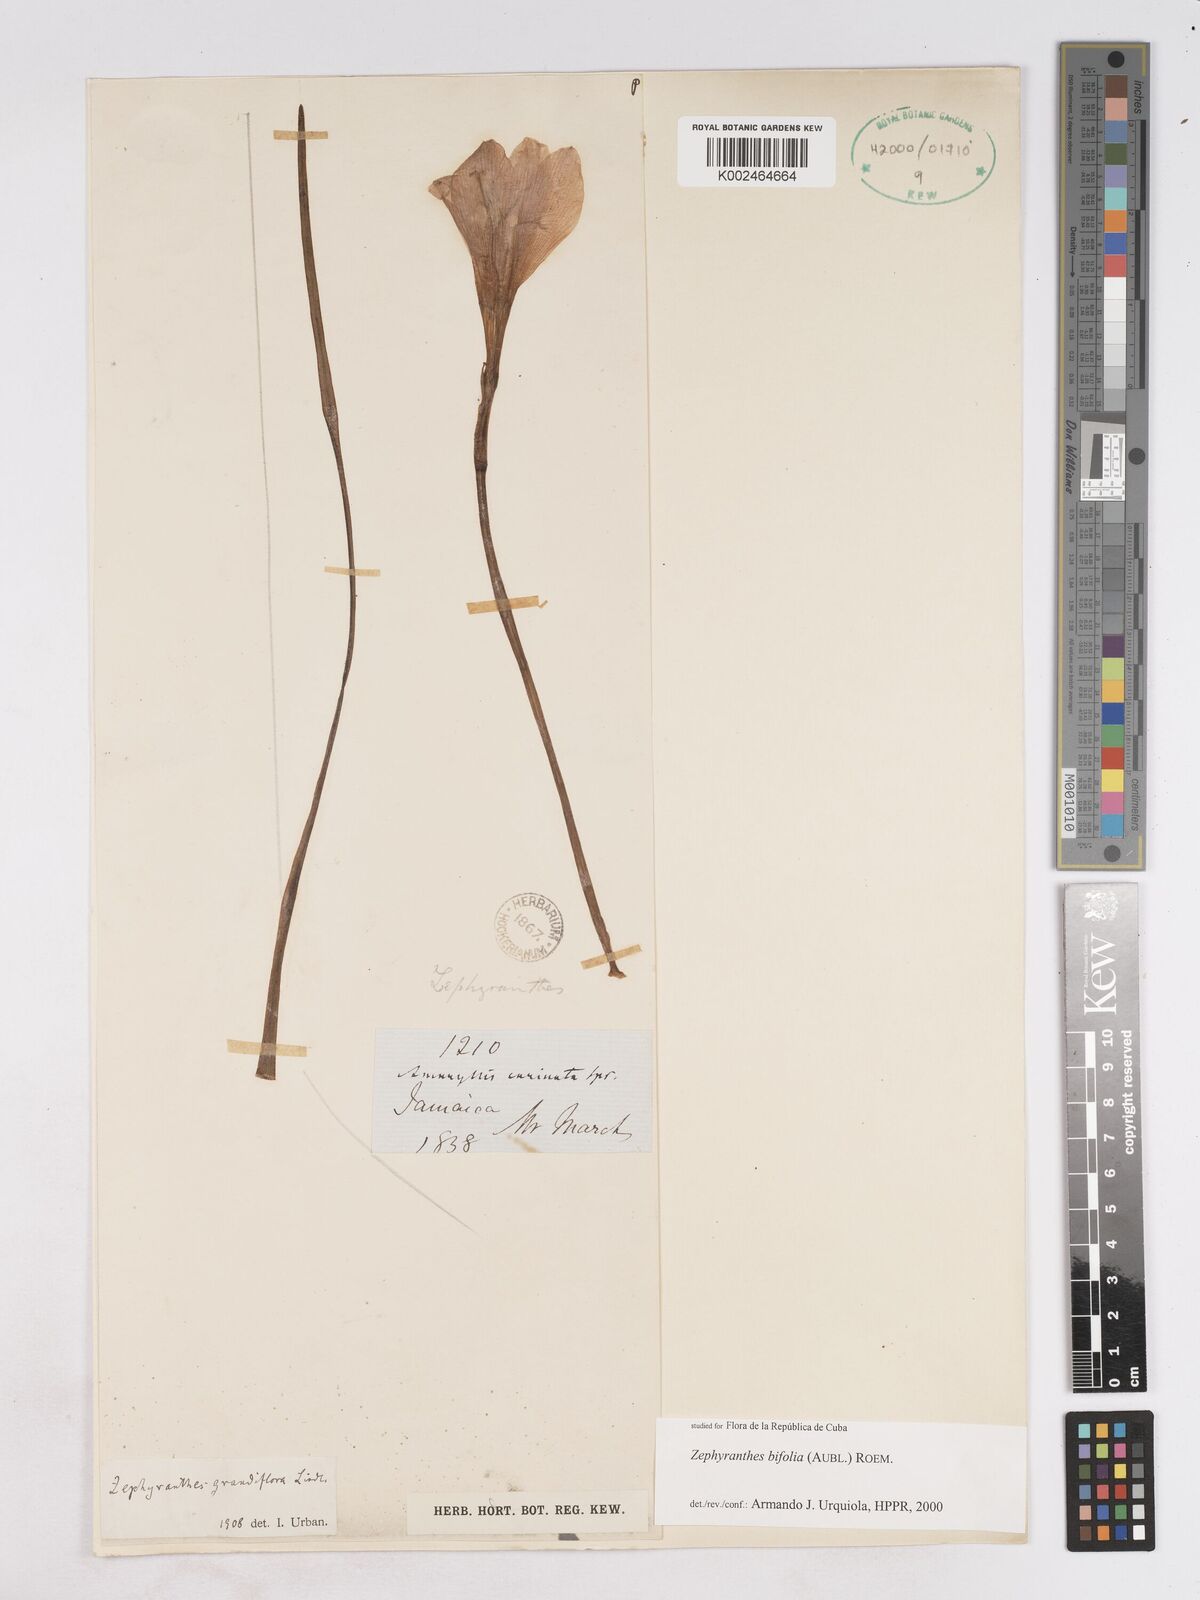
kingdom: Plantae
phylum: Tracheophyta
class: Liliopsida
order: Asparagales
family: Amaryllidaceae
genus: Zephyranthes
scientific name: Zephyranthes bifolia
